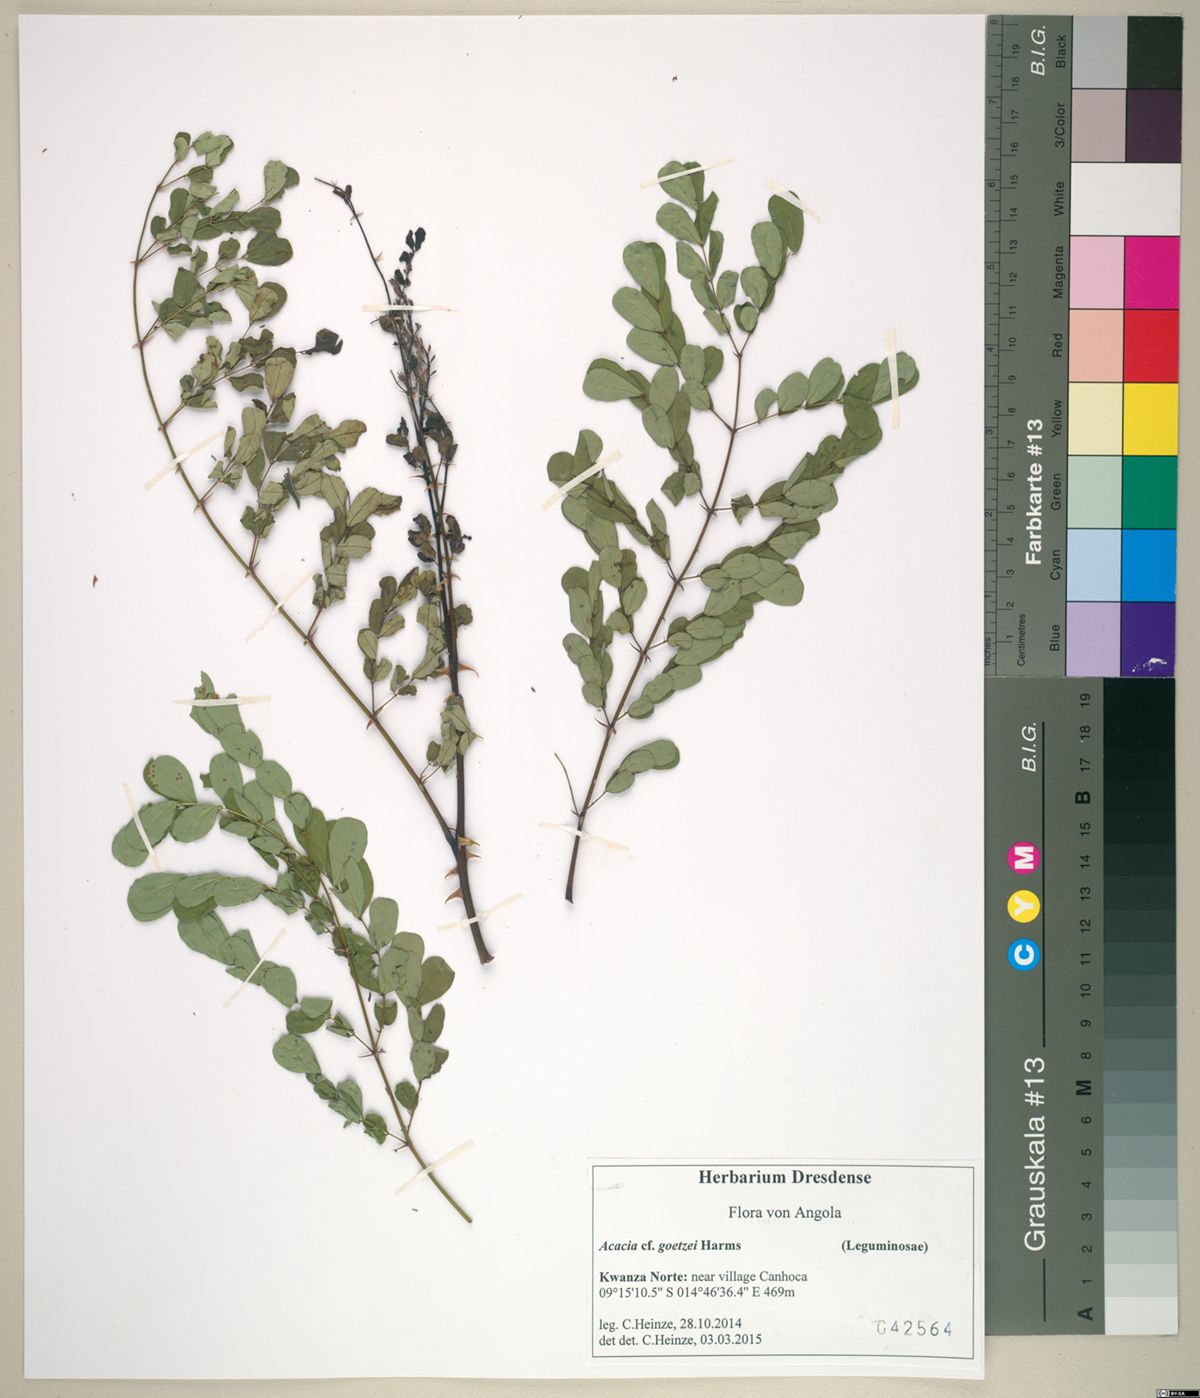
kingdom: Plantae
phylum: Tracheophyta
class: Magnoliopsida
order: Fabales
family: Fabaceae
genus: Senegalia
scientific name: Senegalia goetzei
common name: Purplepod acacia
